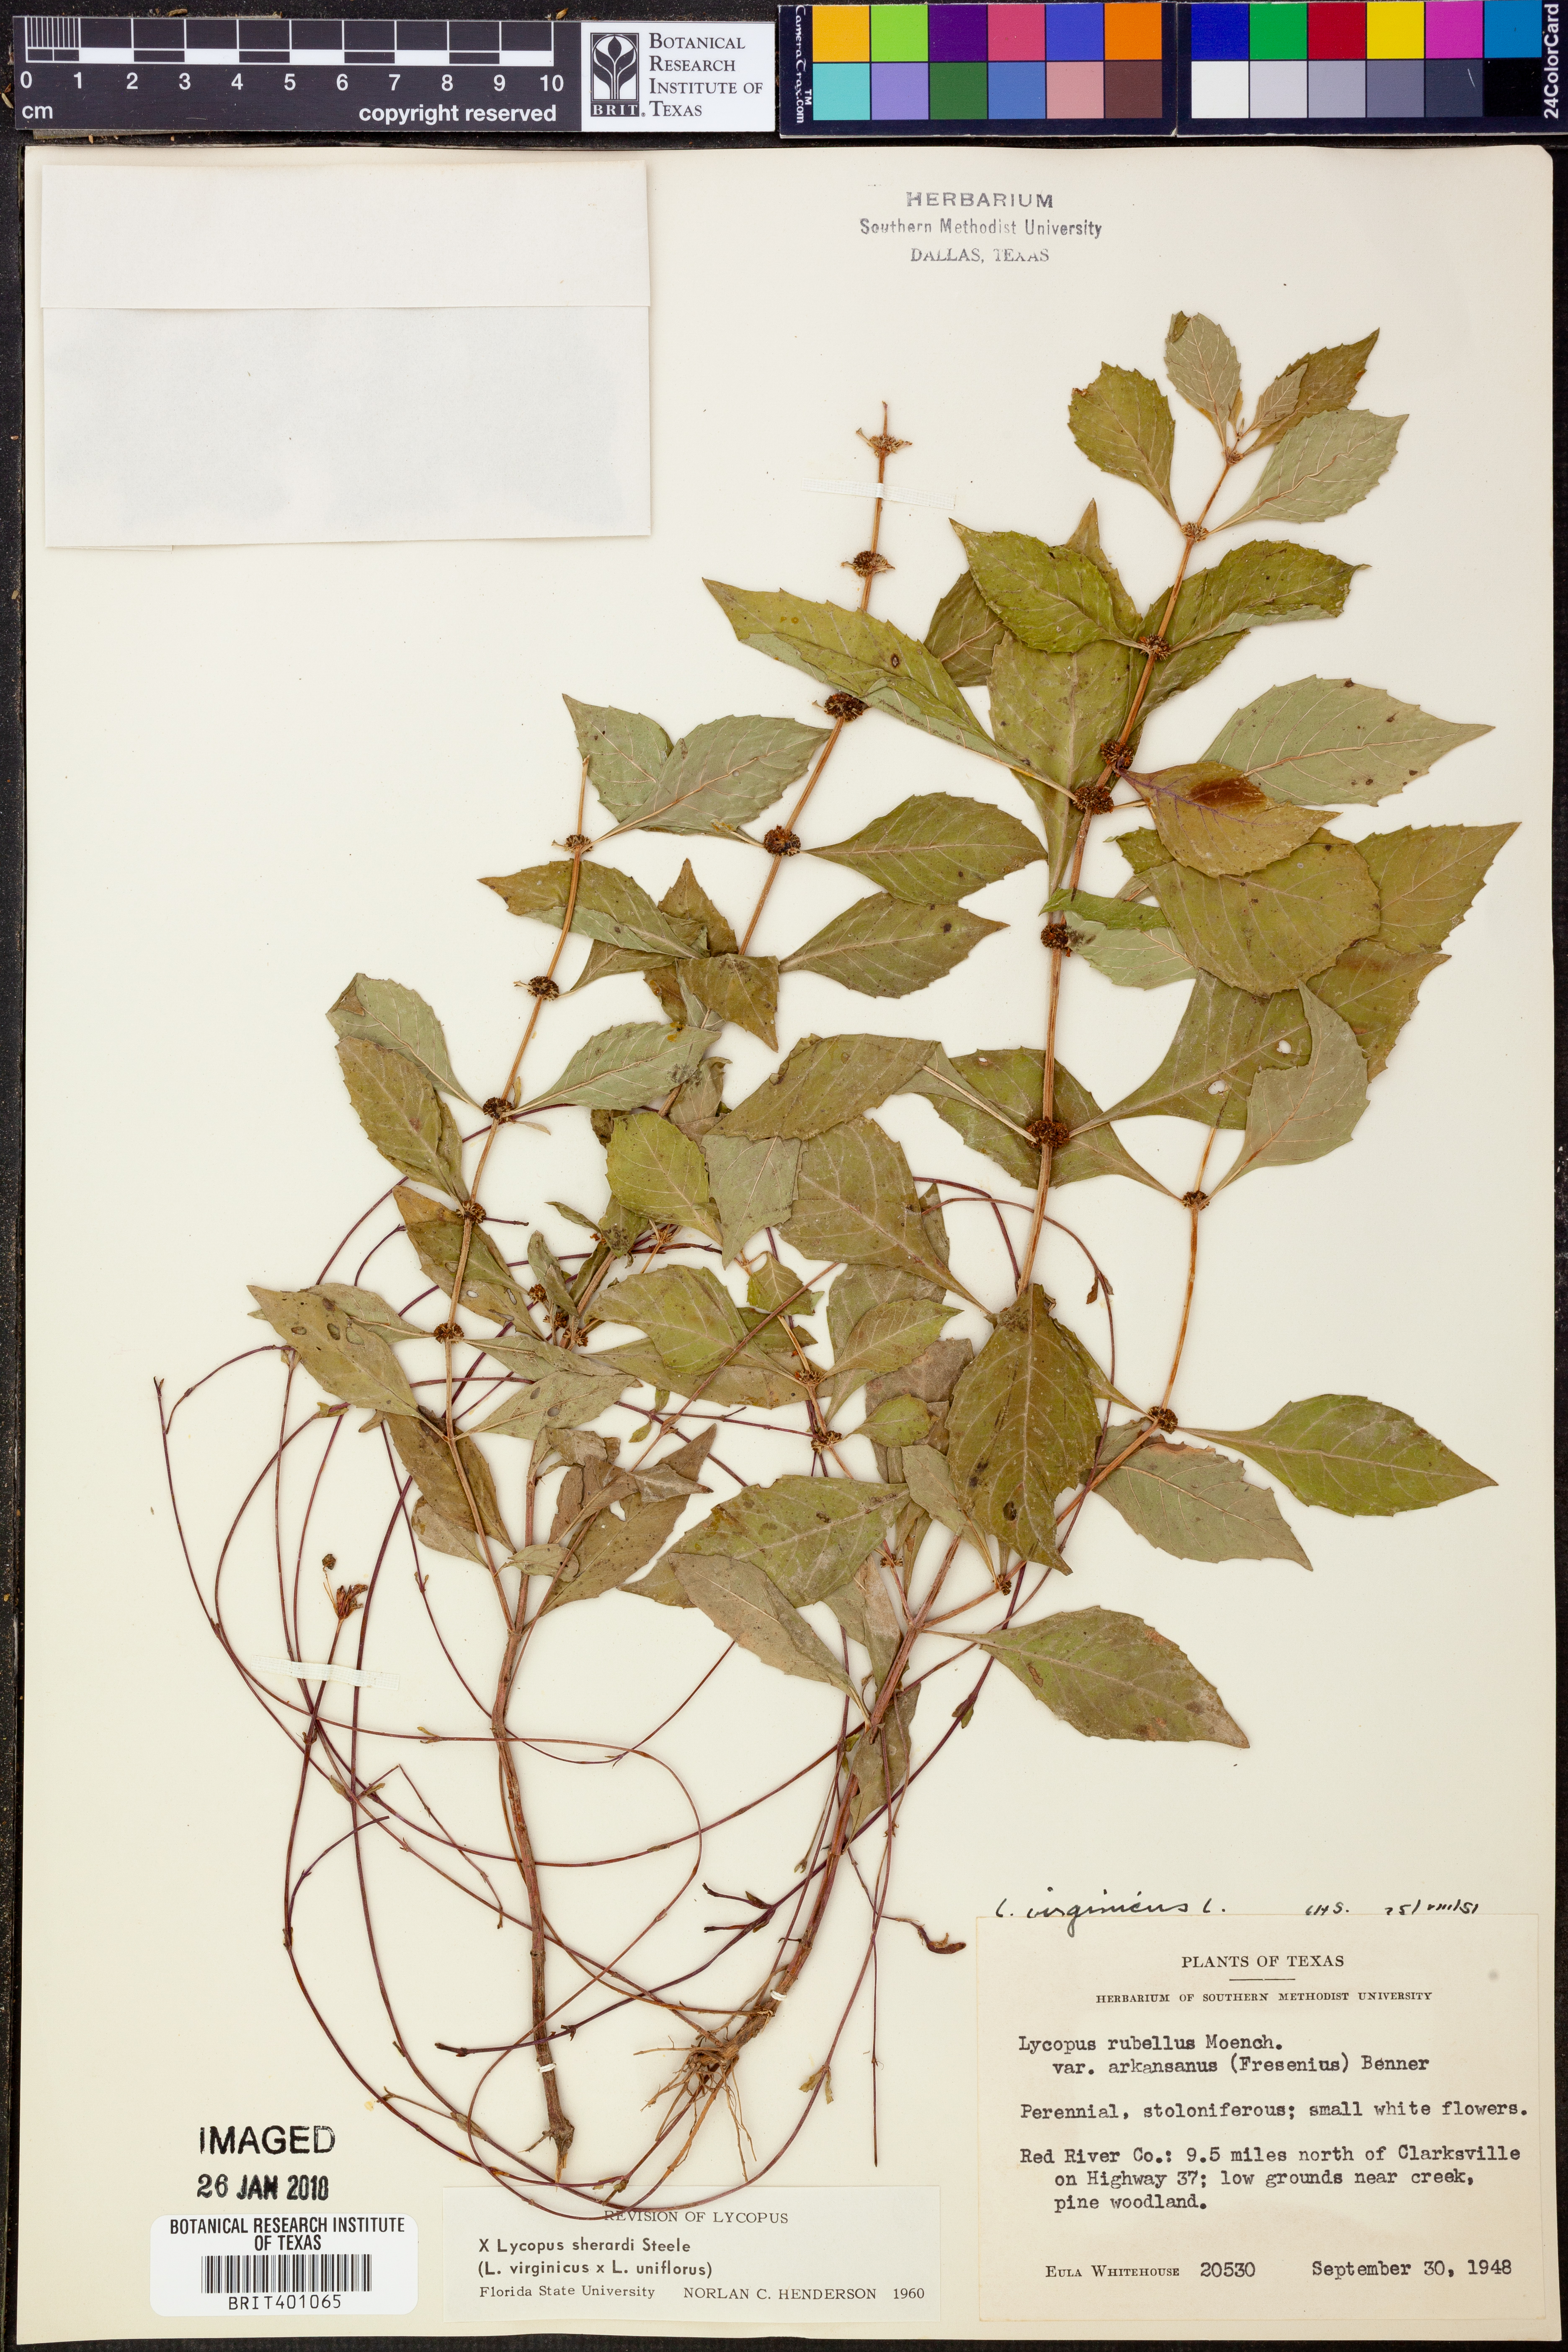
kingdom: Plantae
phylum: Tracheophyta
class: Magnoliopsida
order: Lamiales
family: Lamiaceae
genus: Lycopus
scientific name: Lycopus rubellus
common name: Stalked bugleweed
